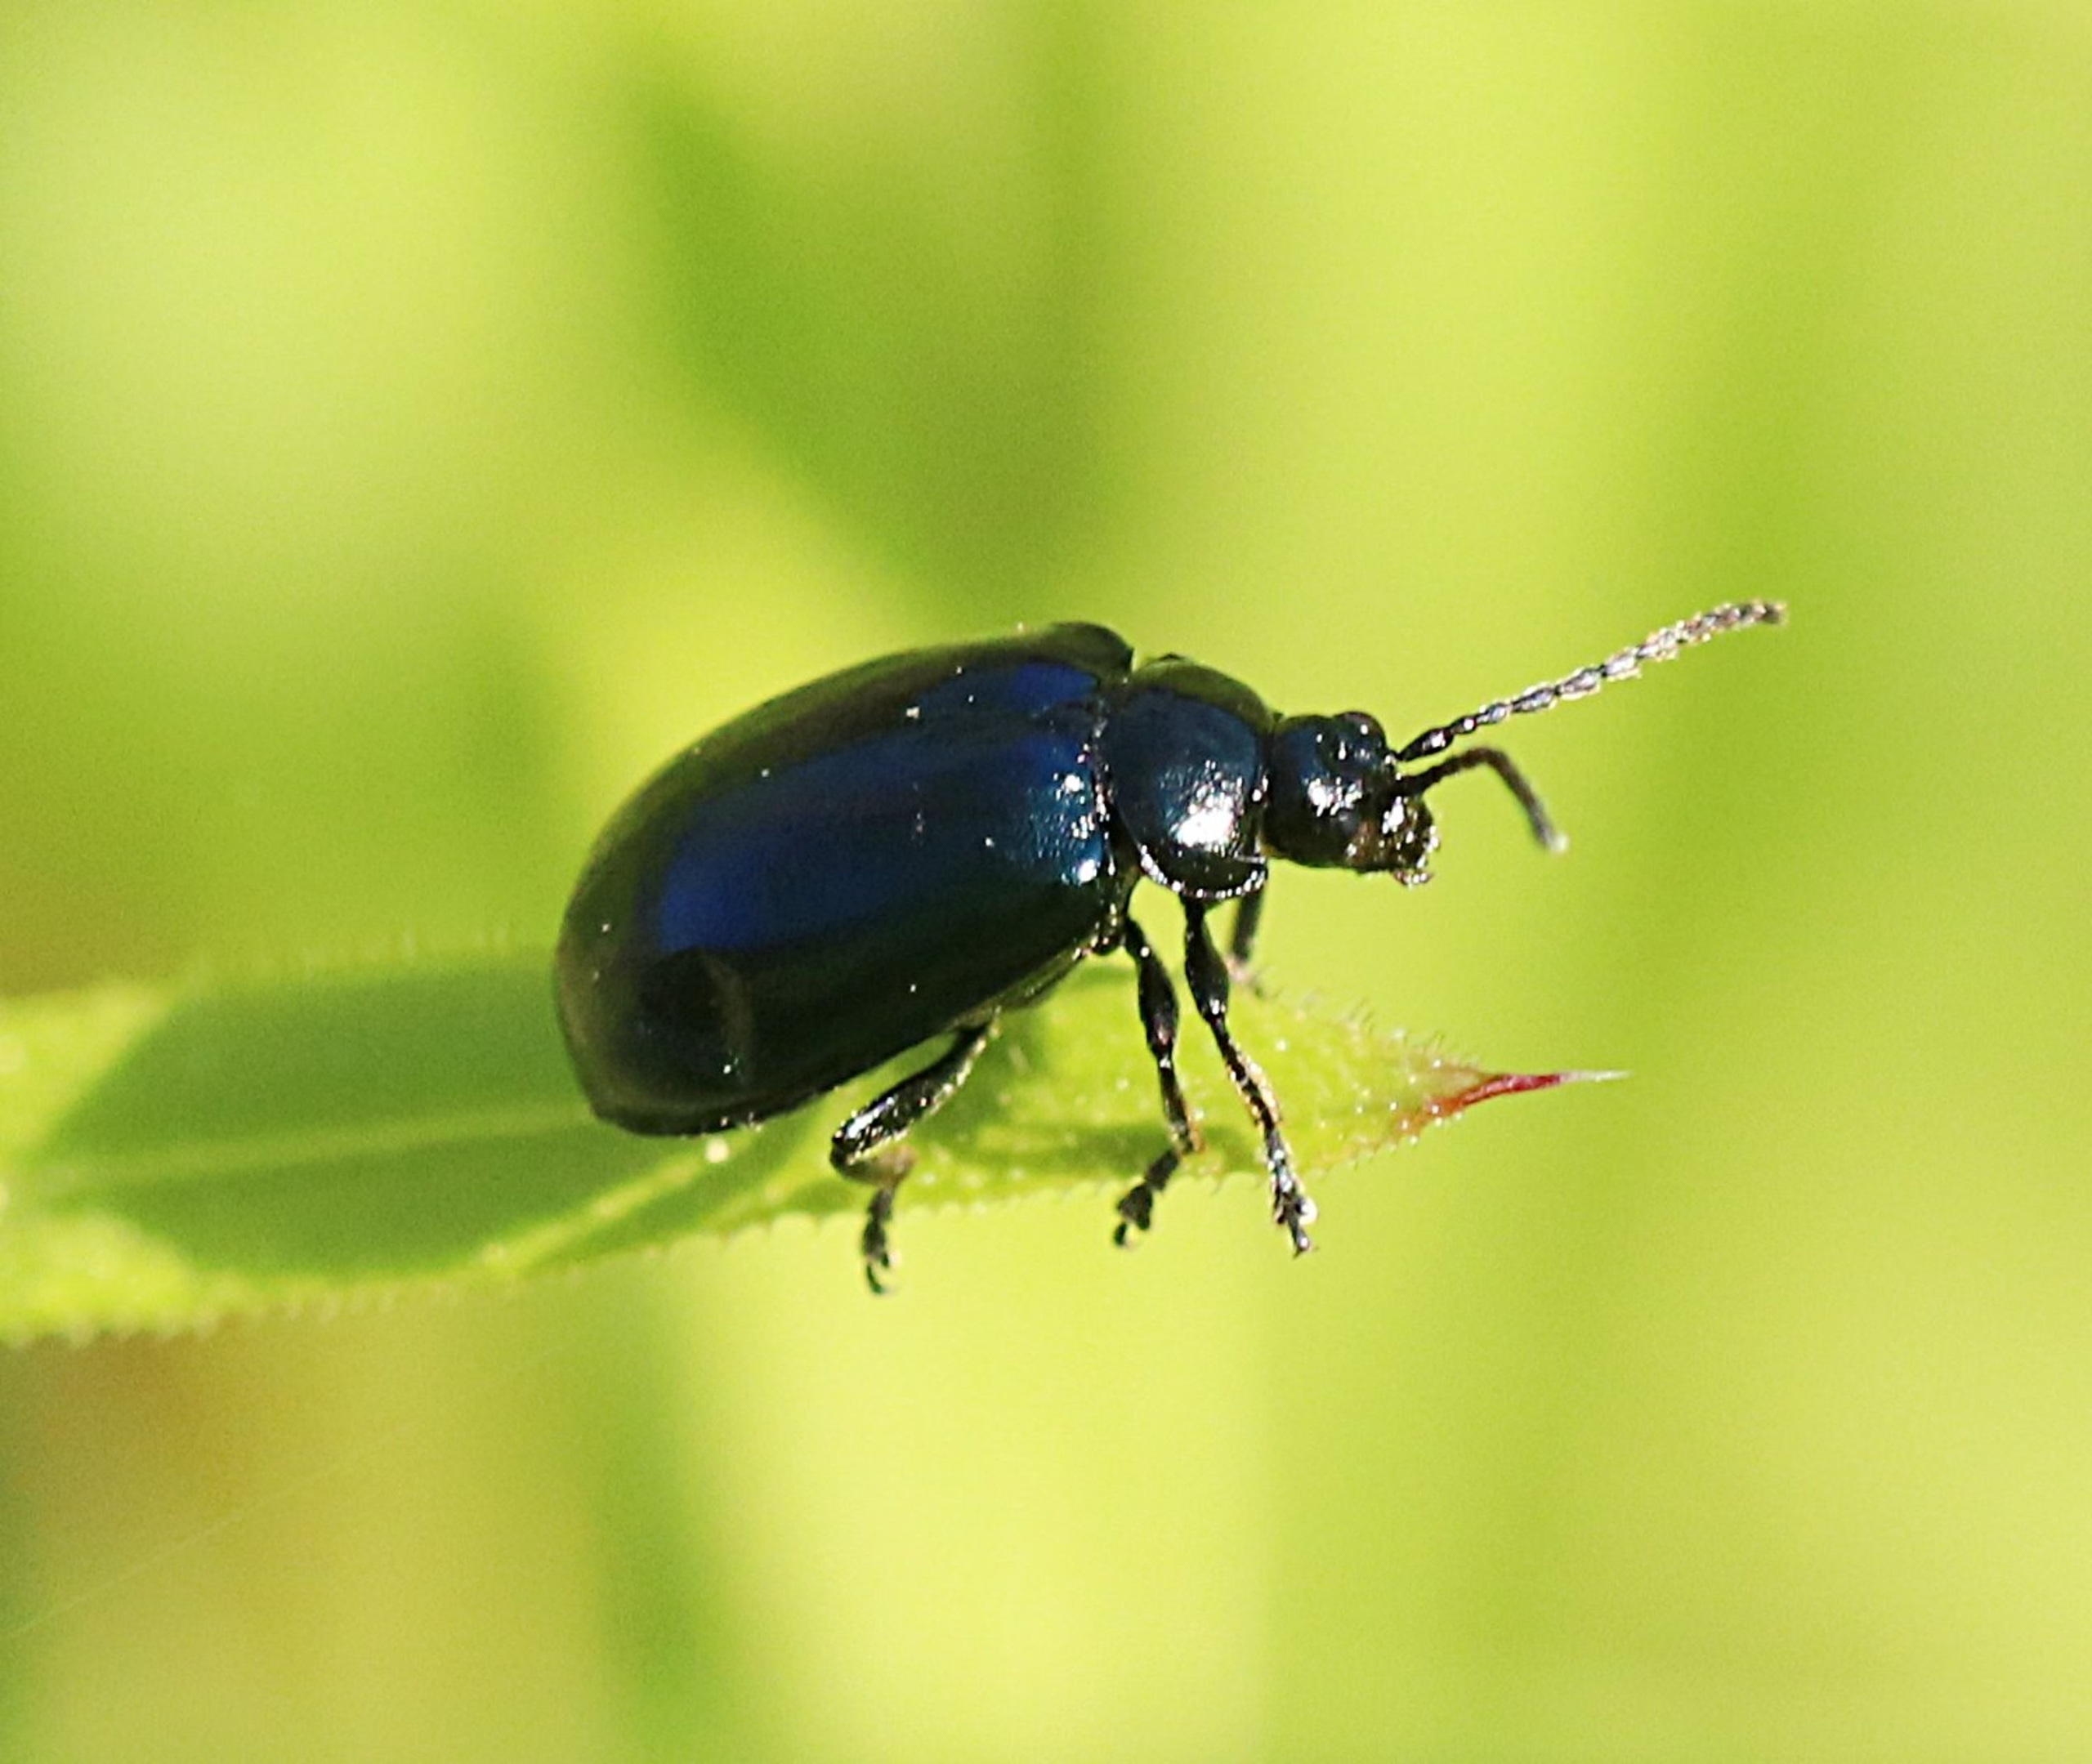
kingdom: Animalia
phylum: Arthropoda
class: Insecta
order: Coleoptera
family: Chrysomelidae
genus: Agelastica
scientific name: Agelastica alni
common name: Ellebladbille
